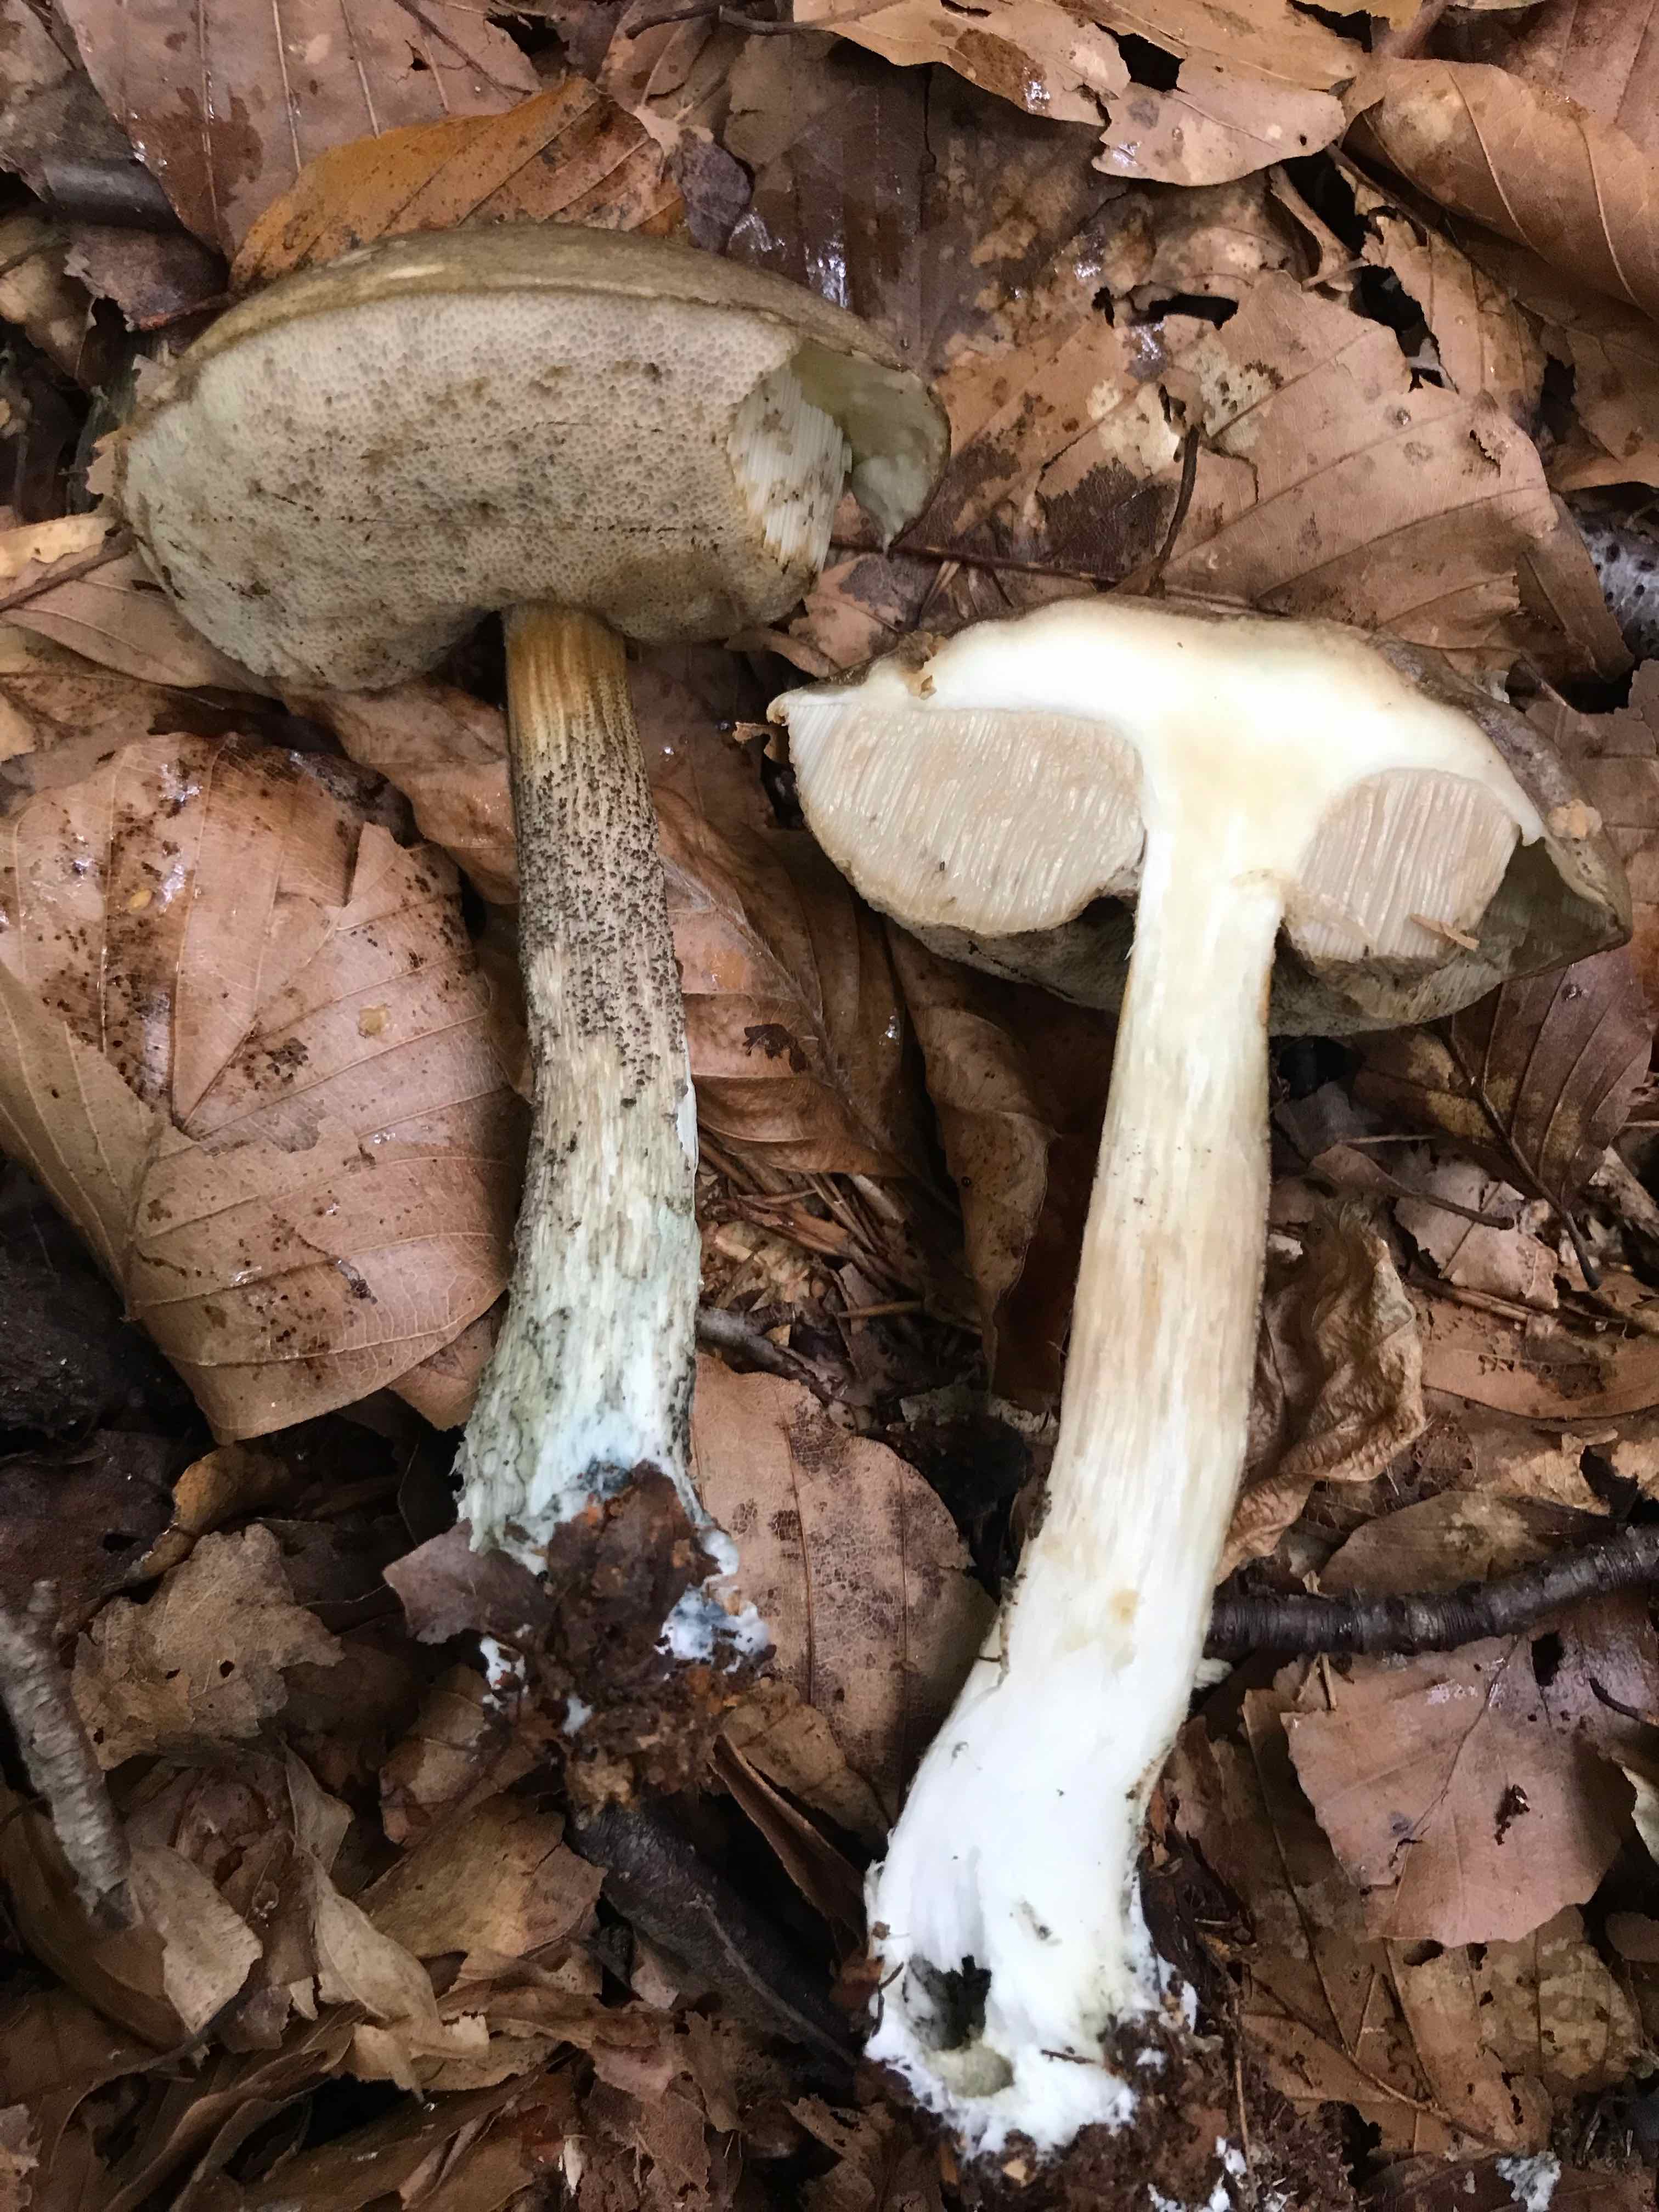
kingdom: Fungi
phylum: Basidiomycota
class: Agaricomycetes
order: Boletales
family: Boletaceae
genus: Leccinum
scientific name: Leccinum cyaneobasileucum
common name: almindelig skælrørhat
